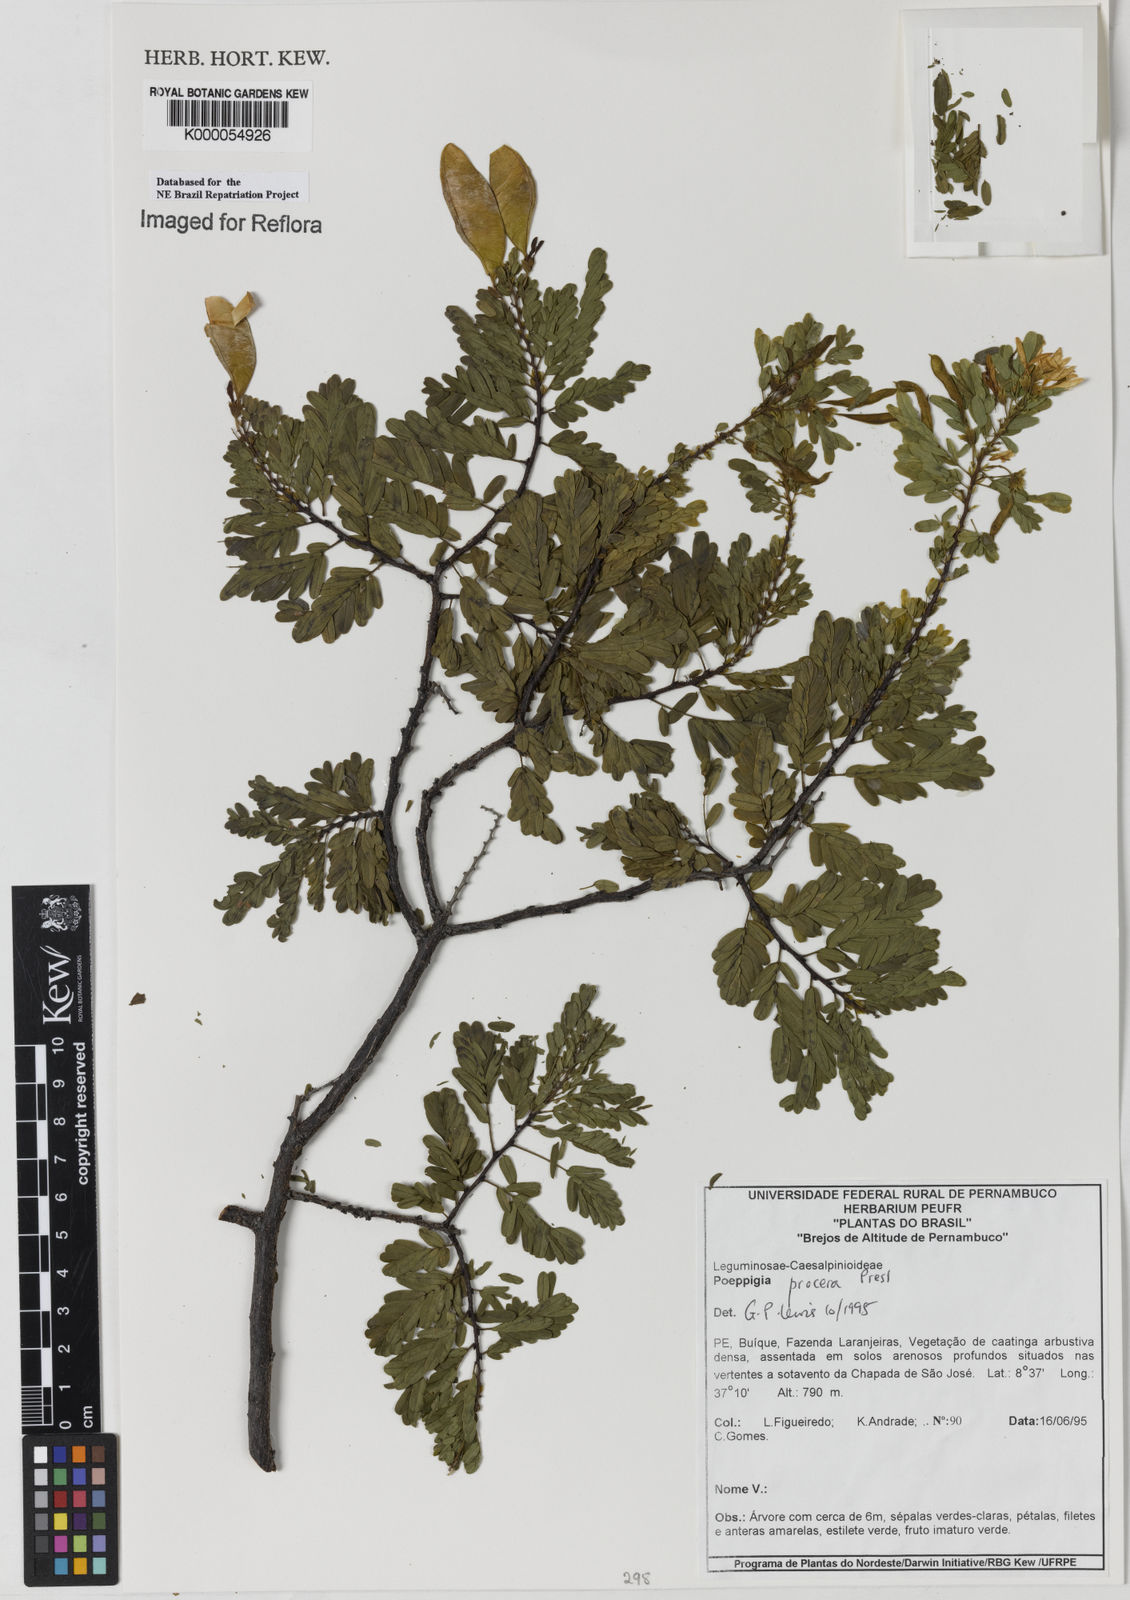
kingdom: Plantae
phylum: Tracheophyta
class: Magnoliopsida
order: Fabales
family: Fabaceae
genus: Poeppigia
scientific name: Poeppigia procera
